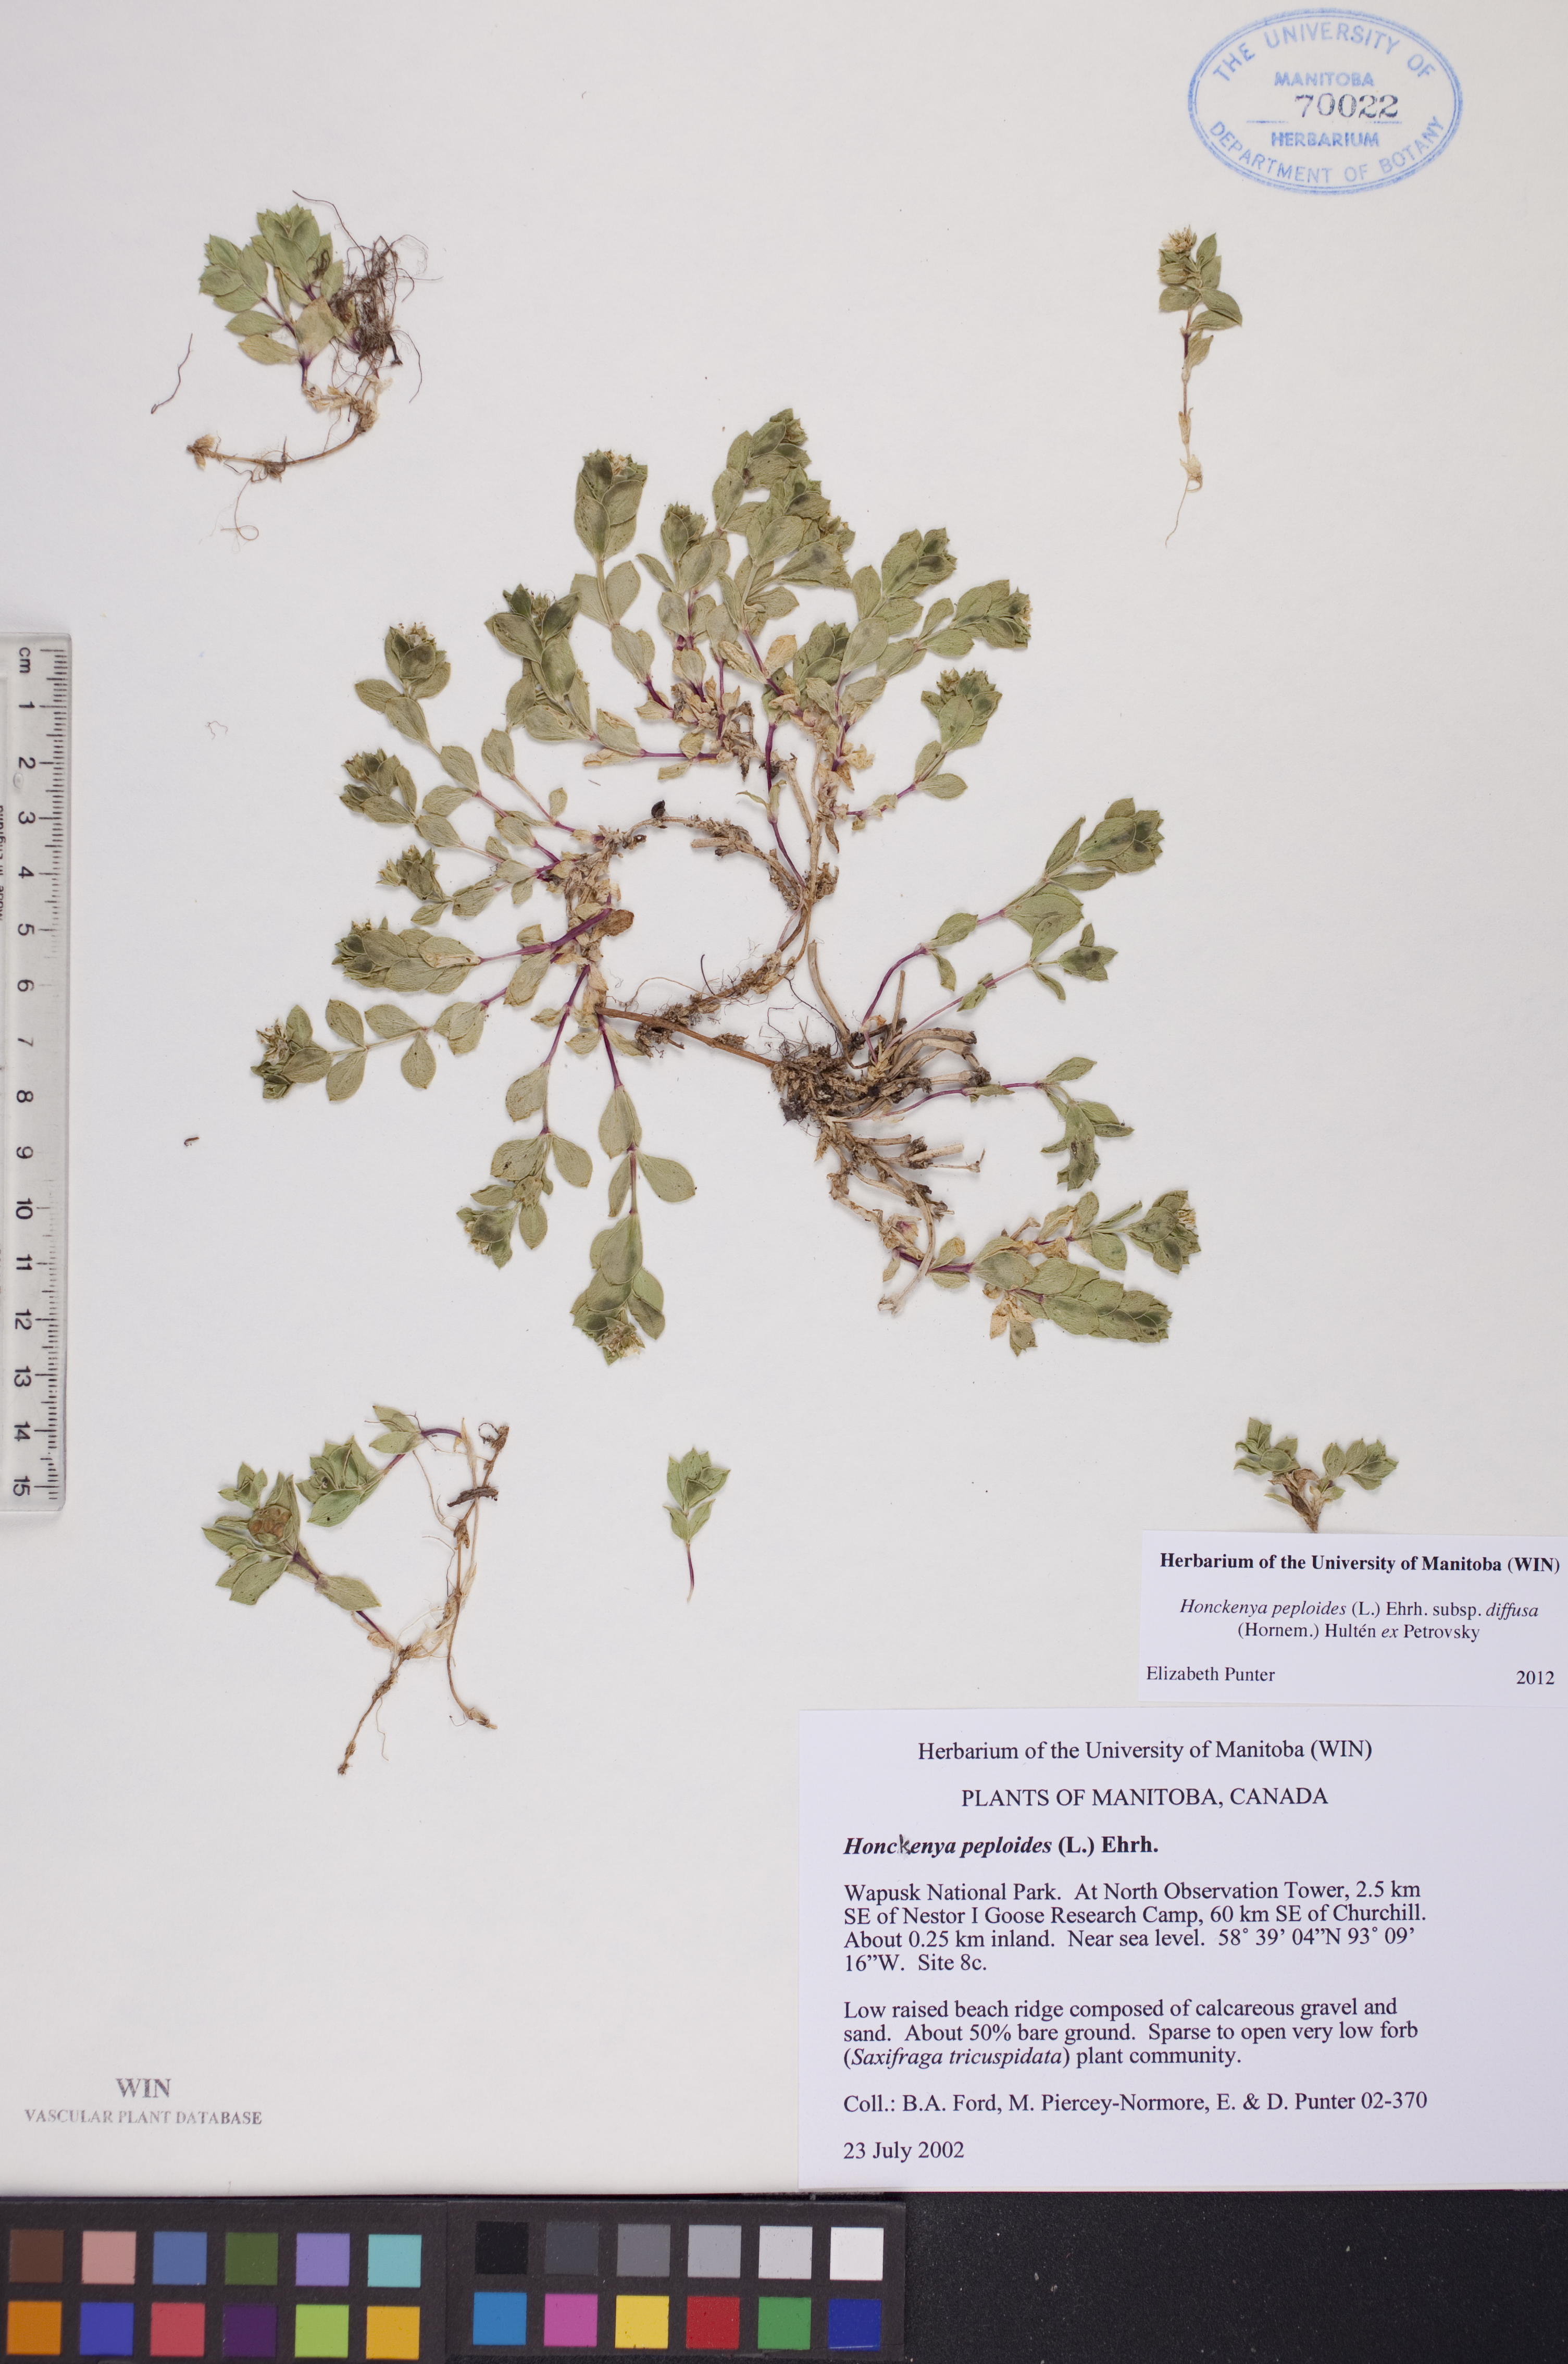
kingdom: Plantae
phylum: Tracheophyta
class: Magnoliopsida
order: Caryophyllales
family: Caryophyllaceae
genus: Honckenya
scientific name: Honckenya peploides
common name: Sea sandwort
